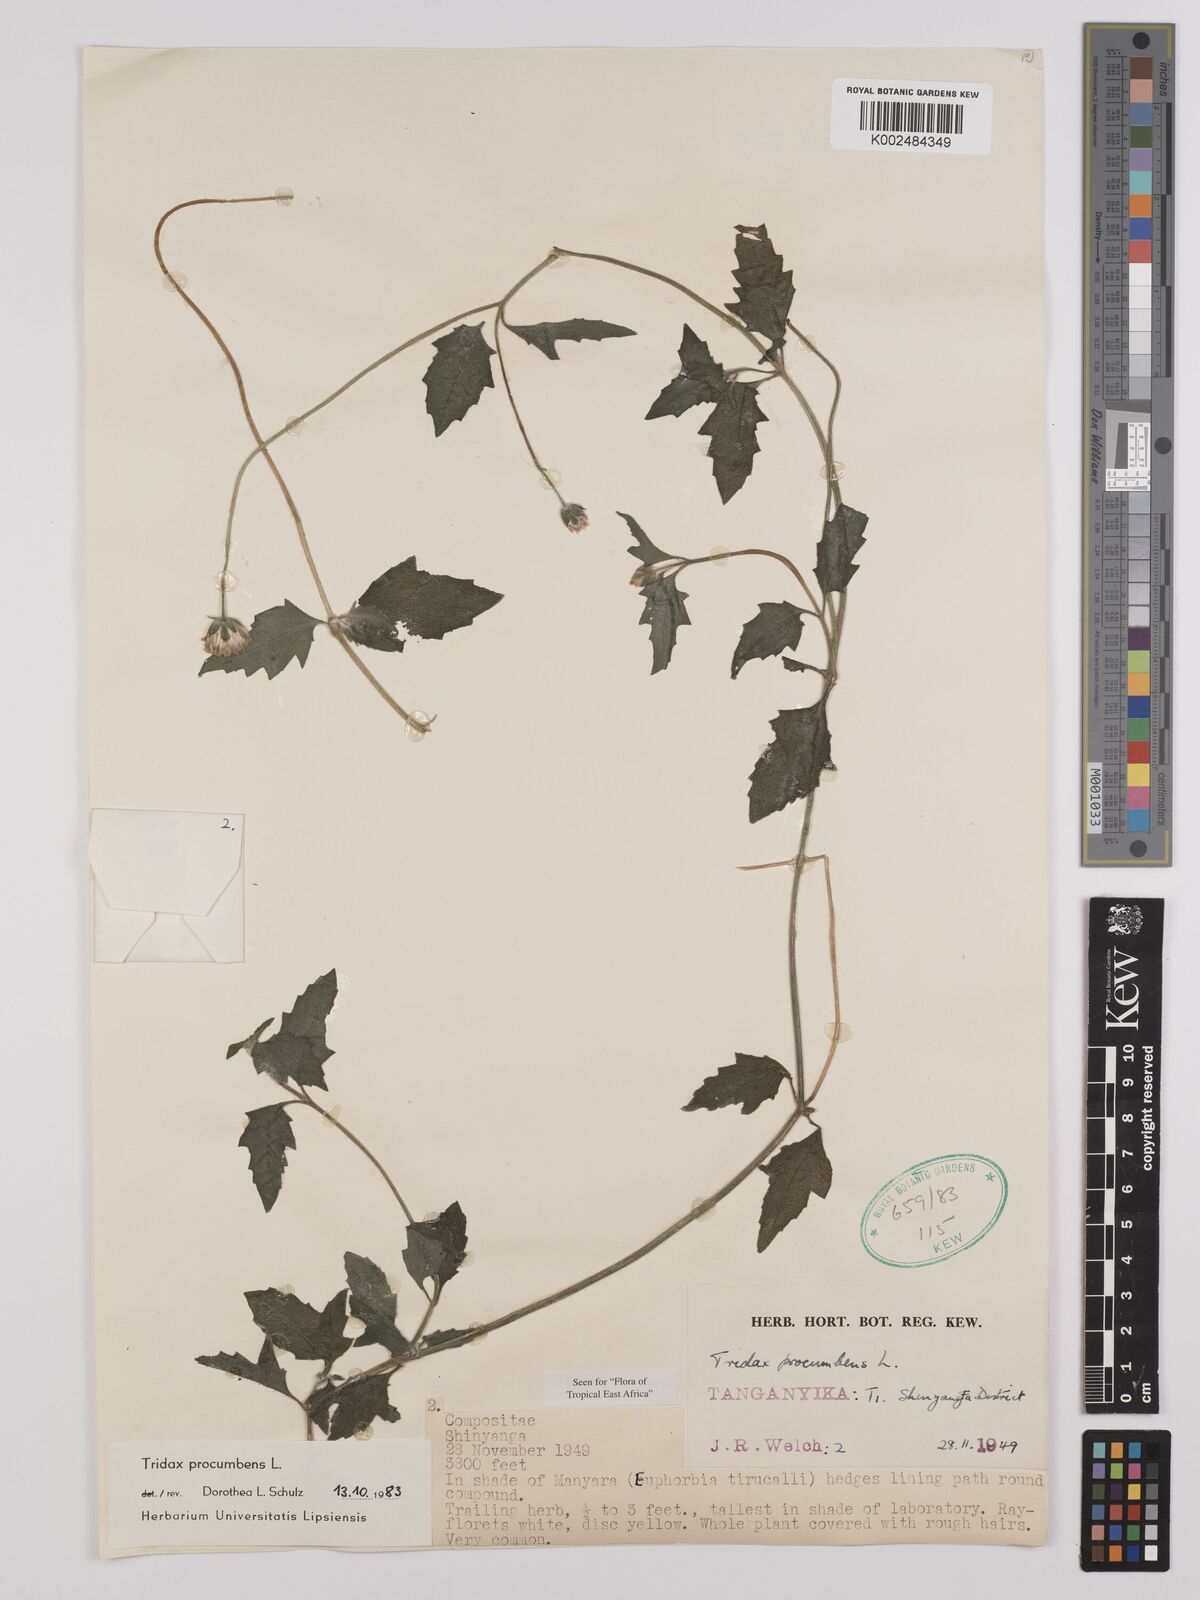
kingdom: Plantae
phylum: Tracheophyta
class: Magnoliopsida
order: Asterales
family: Asteraceae
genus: Tridax
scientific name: Tridax procumbens
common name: Coatbuttons
